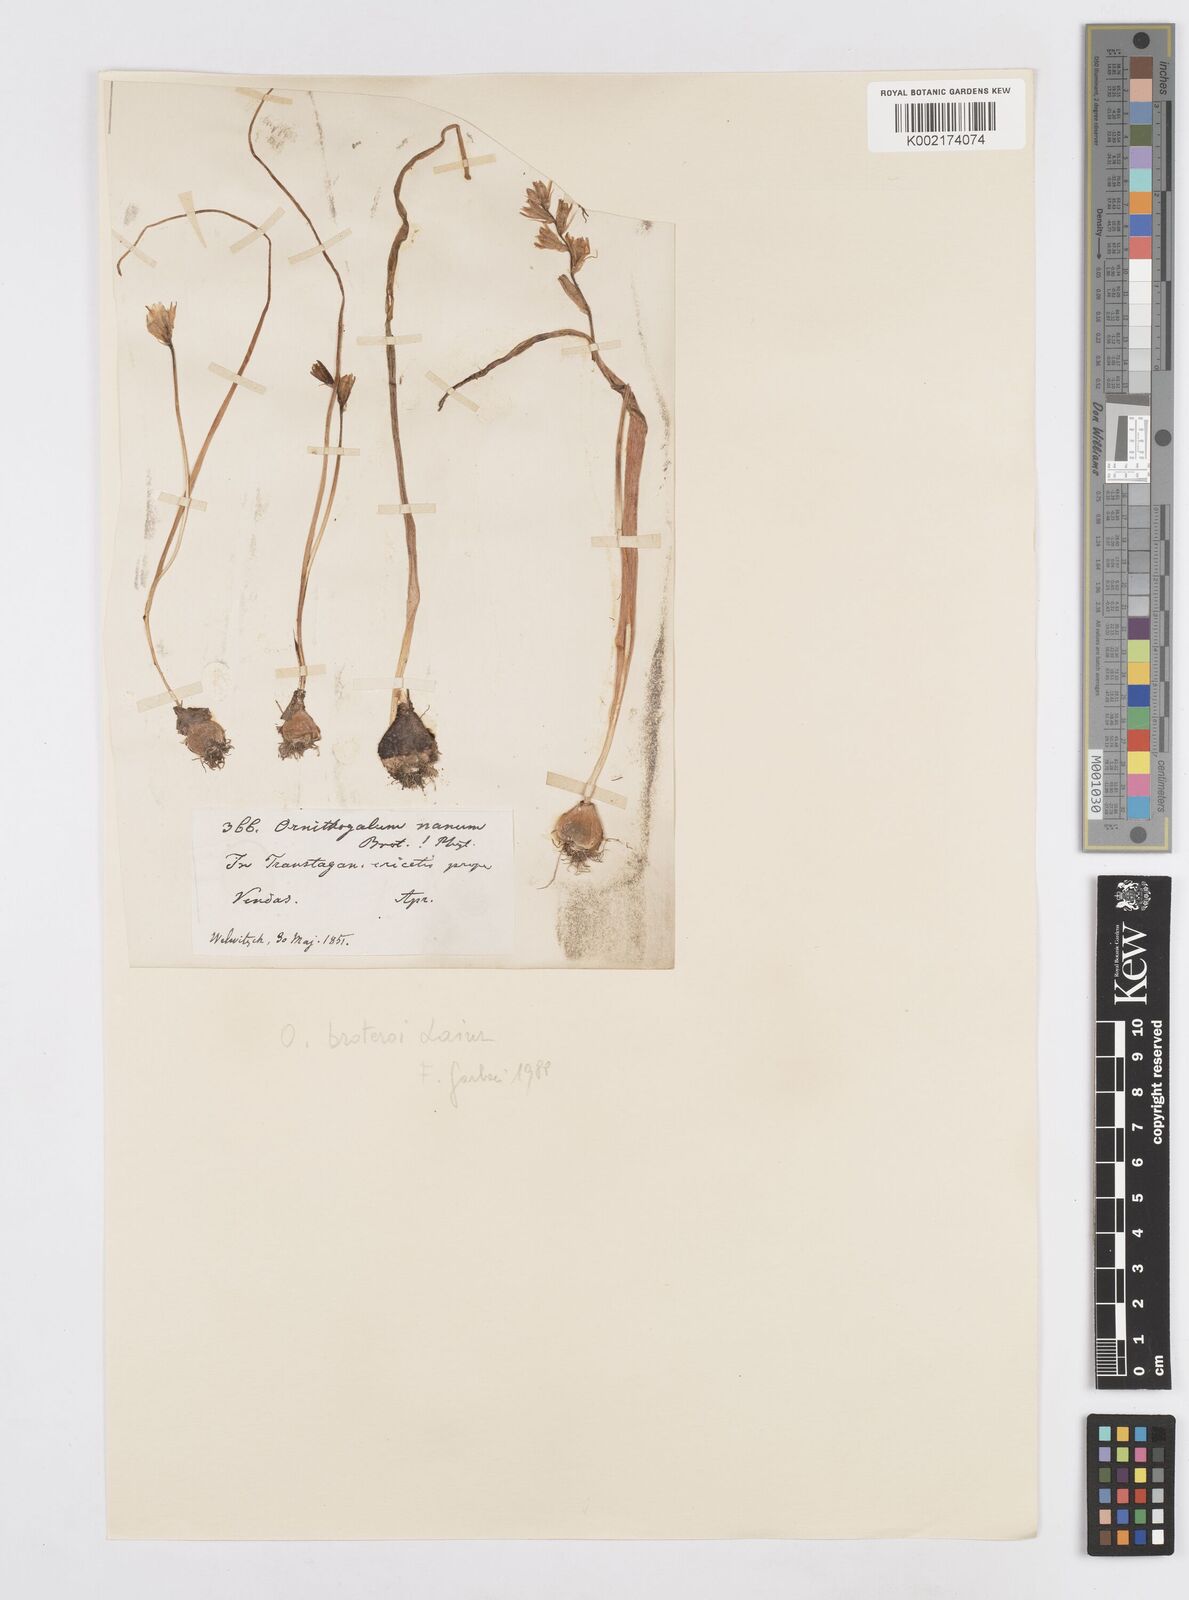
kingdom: Plantae
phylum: Tracheophyta
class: Liliopsida
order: Asparagales
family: Asparagaceae
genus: Ornithogalum
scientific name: Ornithogalum broteroi
